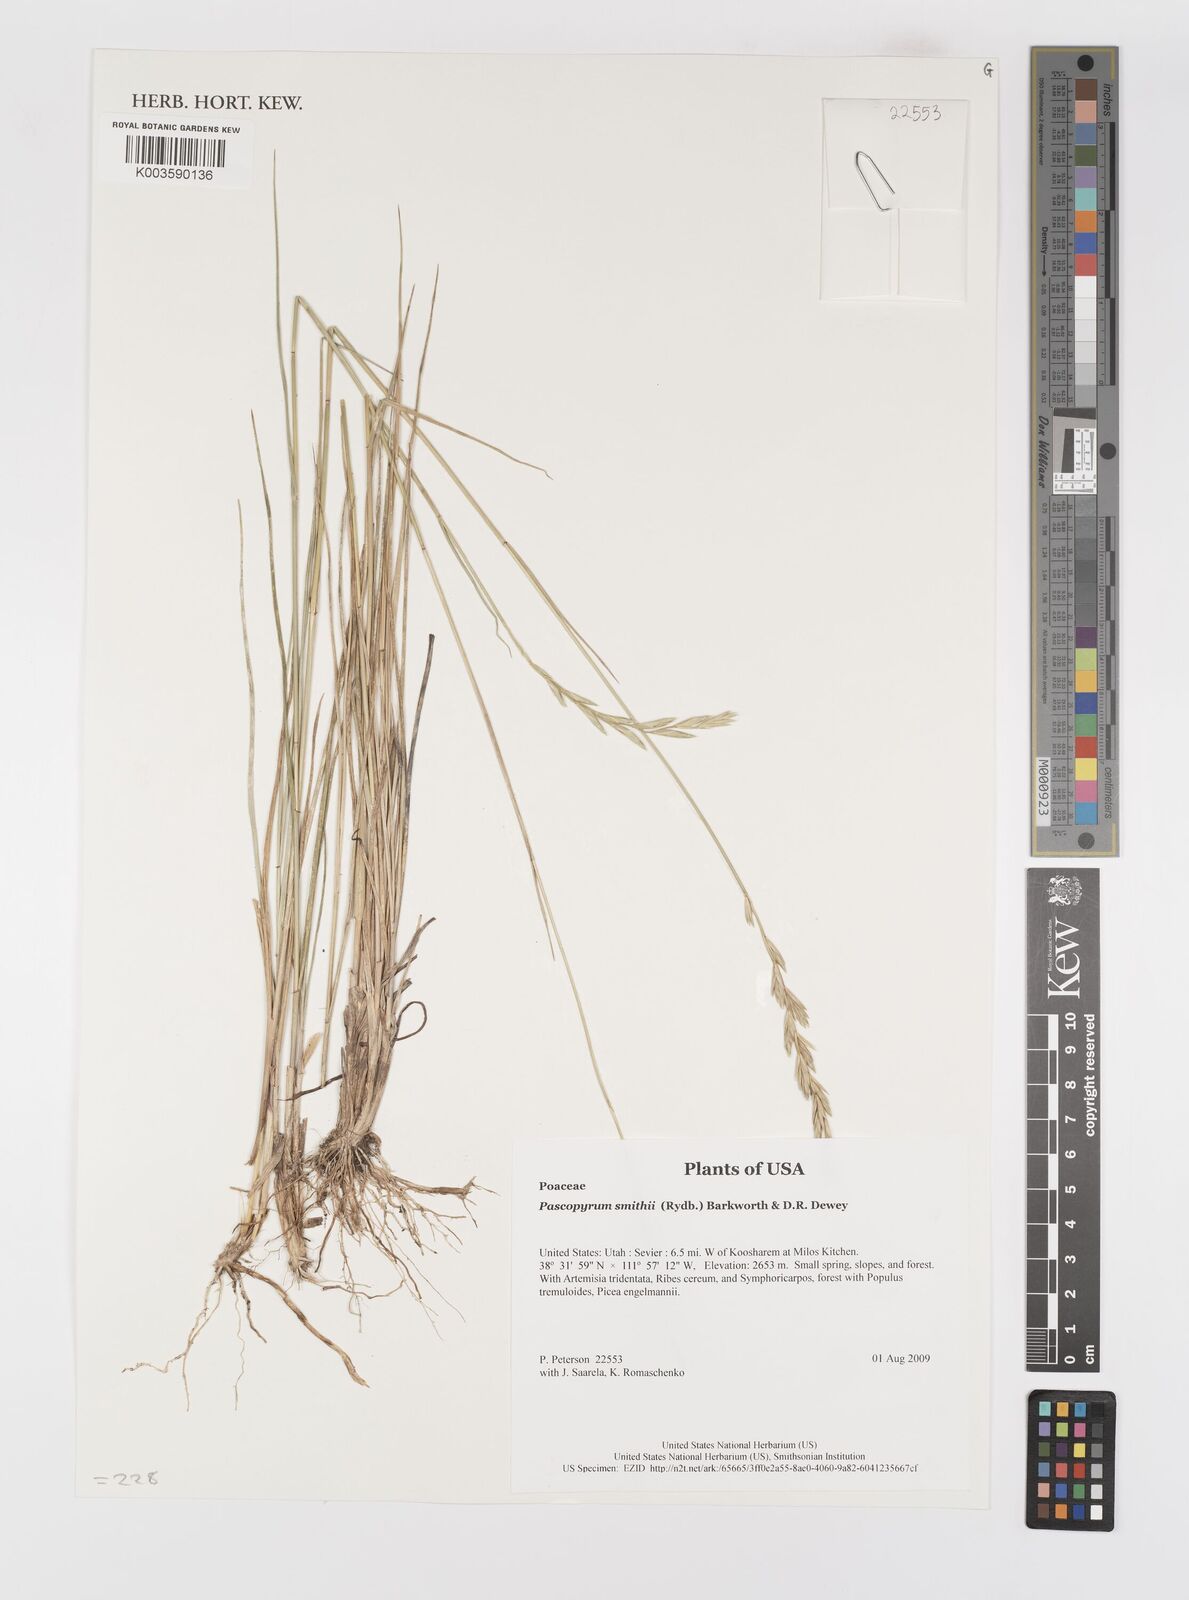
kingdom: Plantae
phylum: Tracheophyta
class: Liliopsida
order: Poales
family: Poaceae
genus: Elymus
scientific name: Elymus smithii
